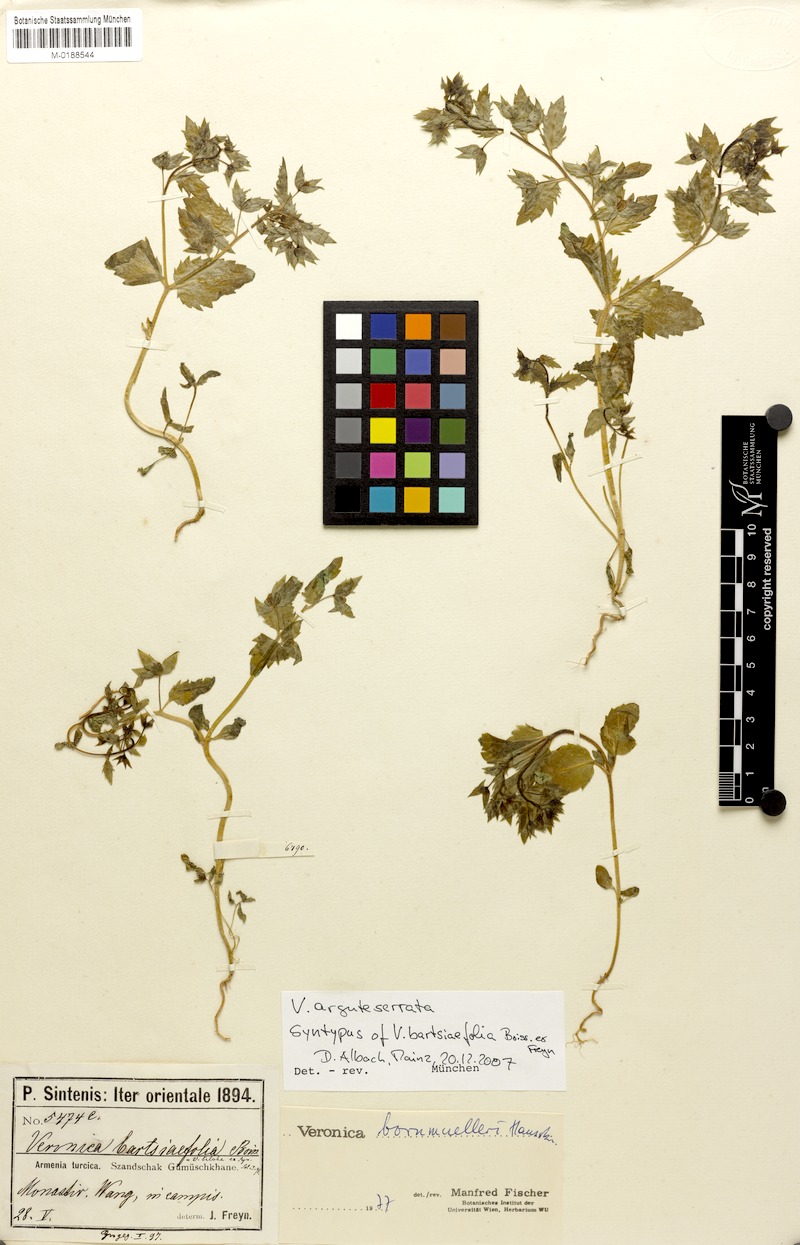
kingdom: Plantae
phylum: Tracheophyta
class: Magnoliopsida
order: Lamiales
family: Plantaginaceae
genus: Veronica
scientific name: Veronica argute-serrata
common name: Sawtooth speedwell
